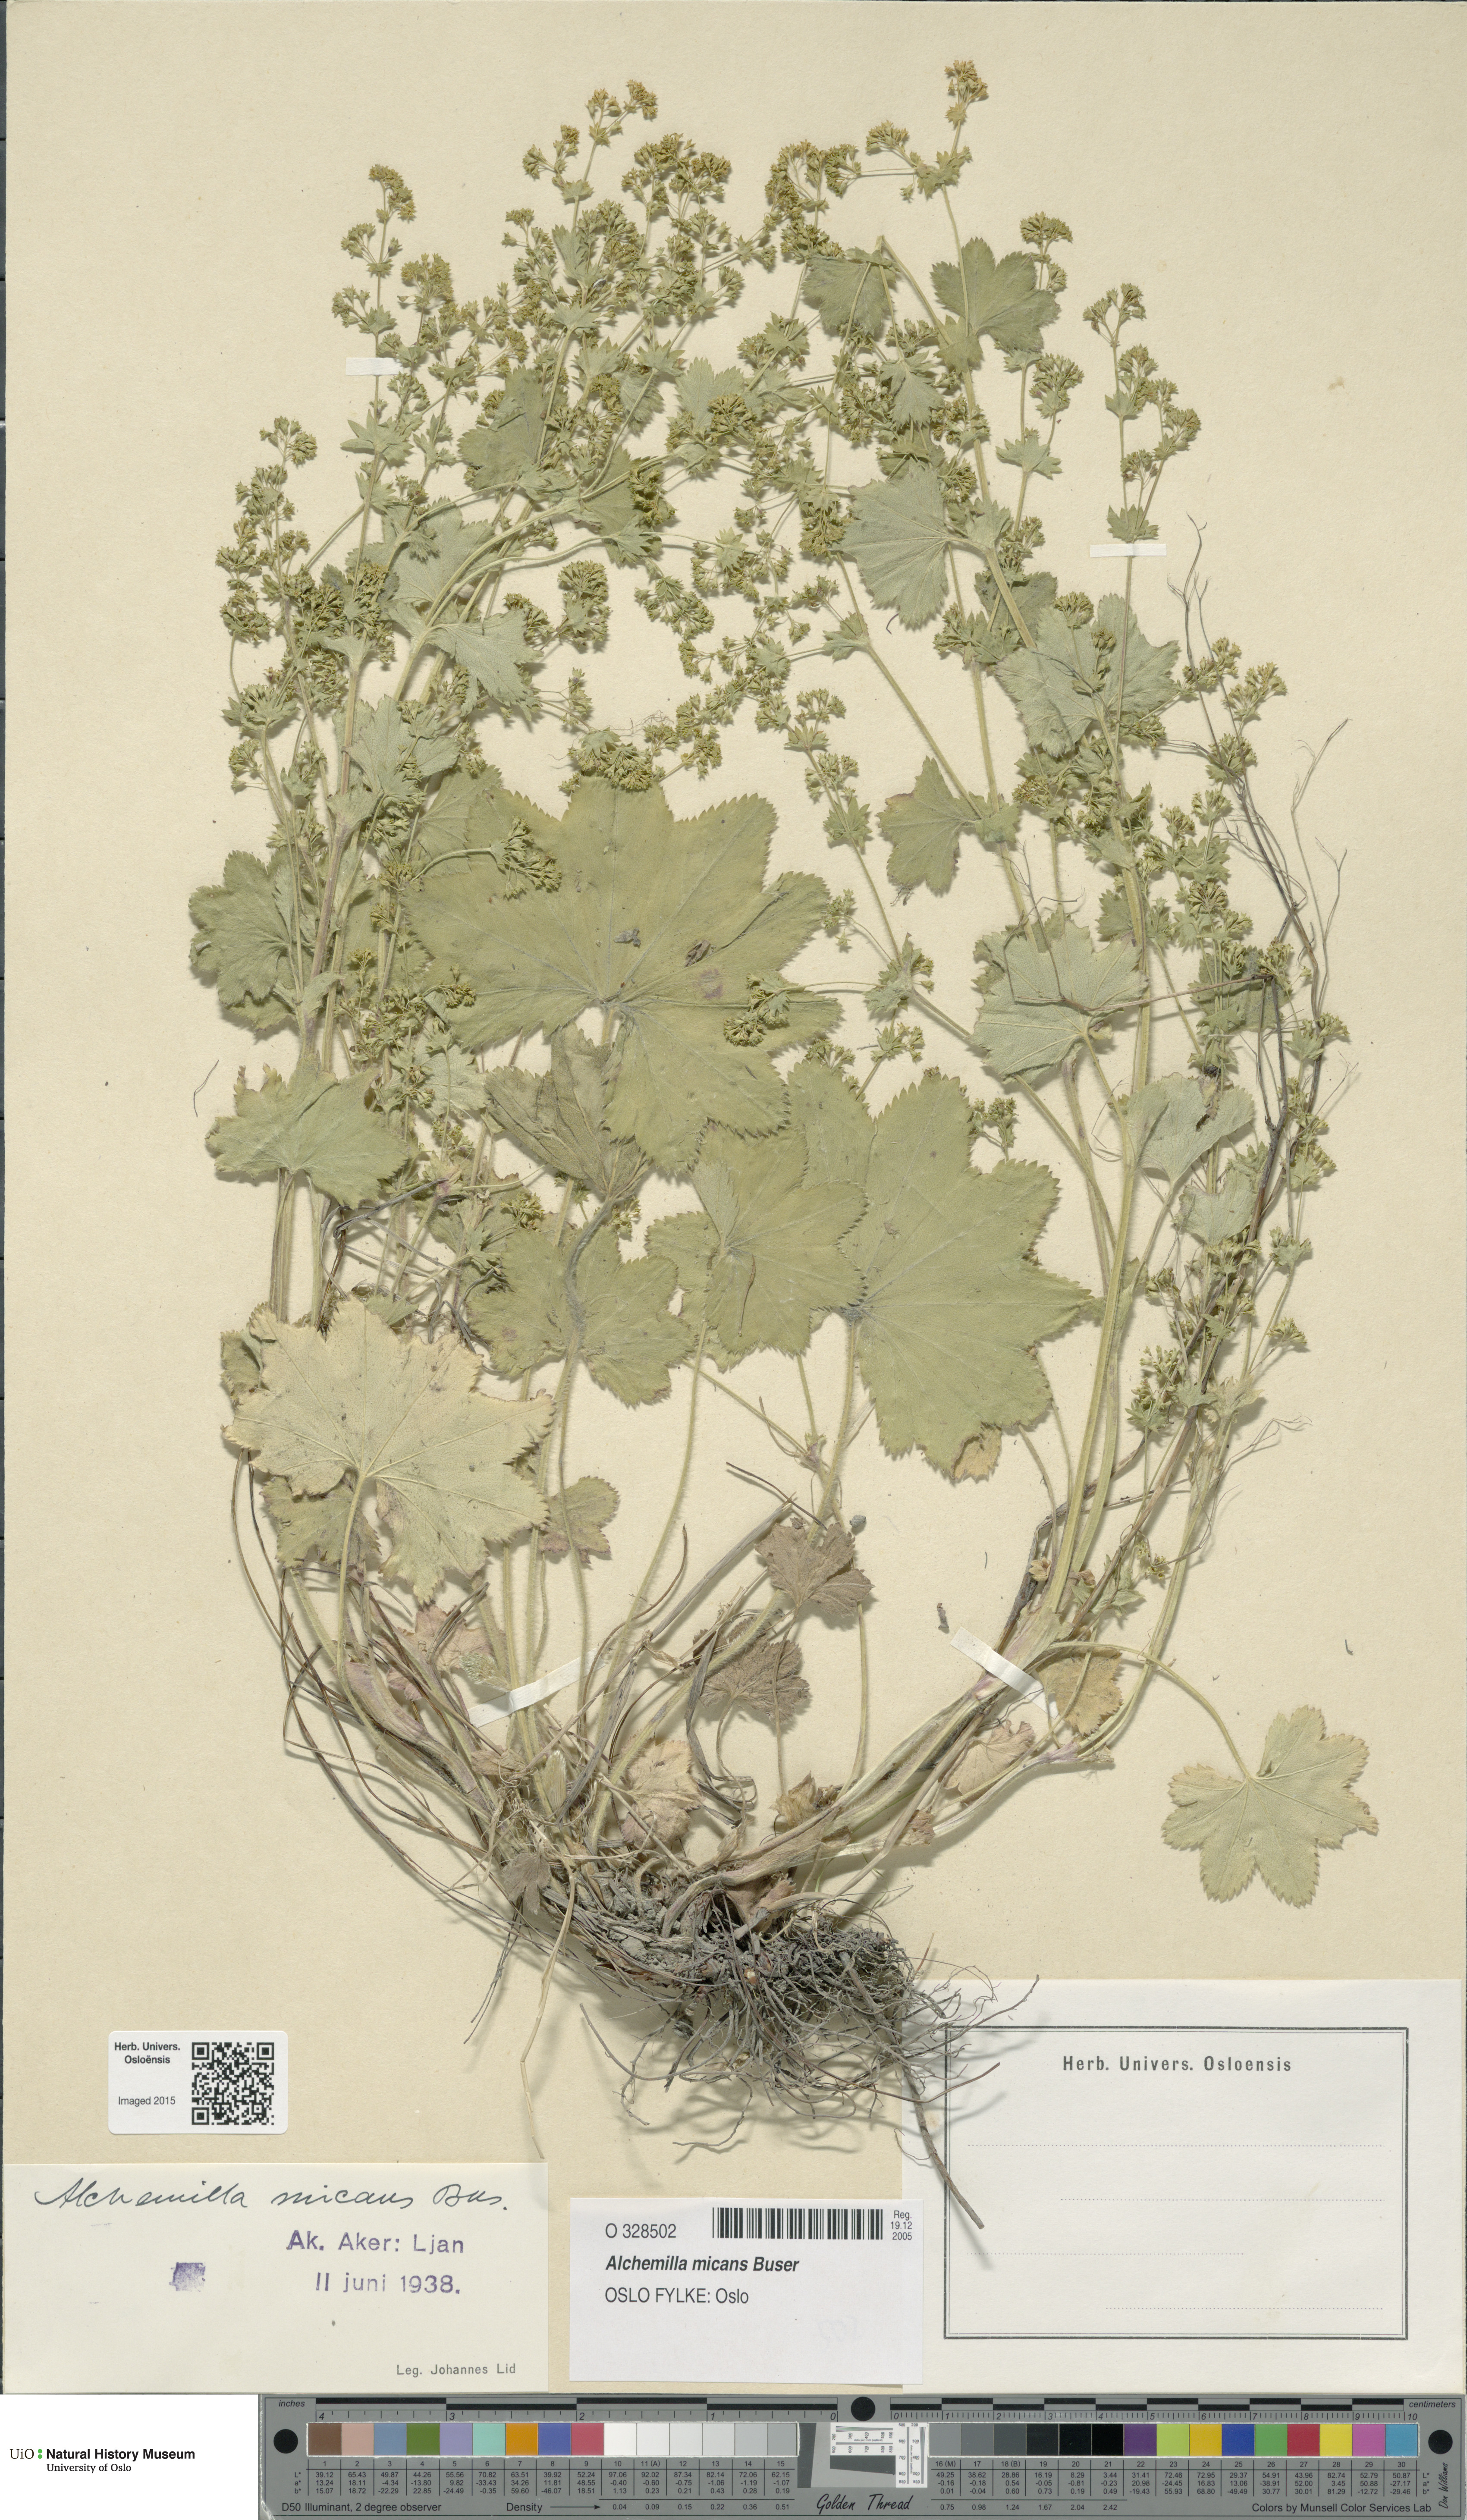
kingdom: Plantae
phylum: Tracheophyta
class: Magnoliopsida
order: Rosales
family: Rosaceae
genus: Alchemilla
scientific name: Alchemilla micans
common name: Gleaming lady's mantle
